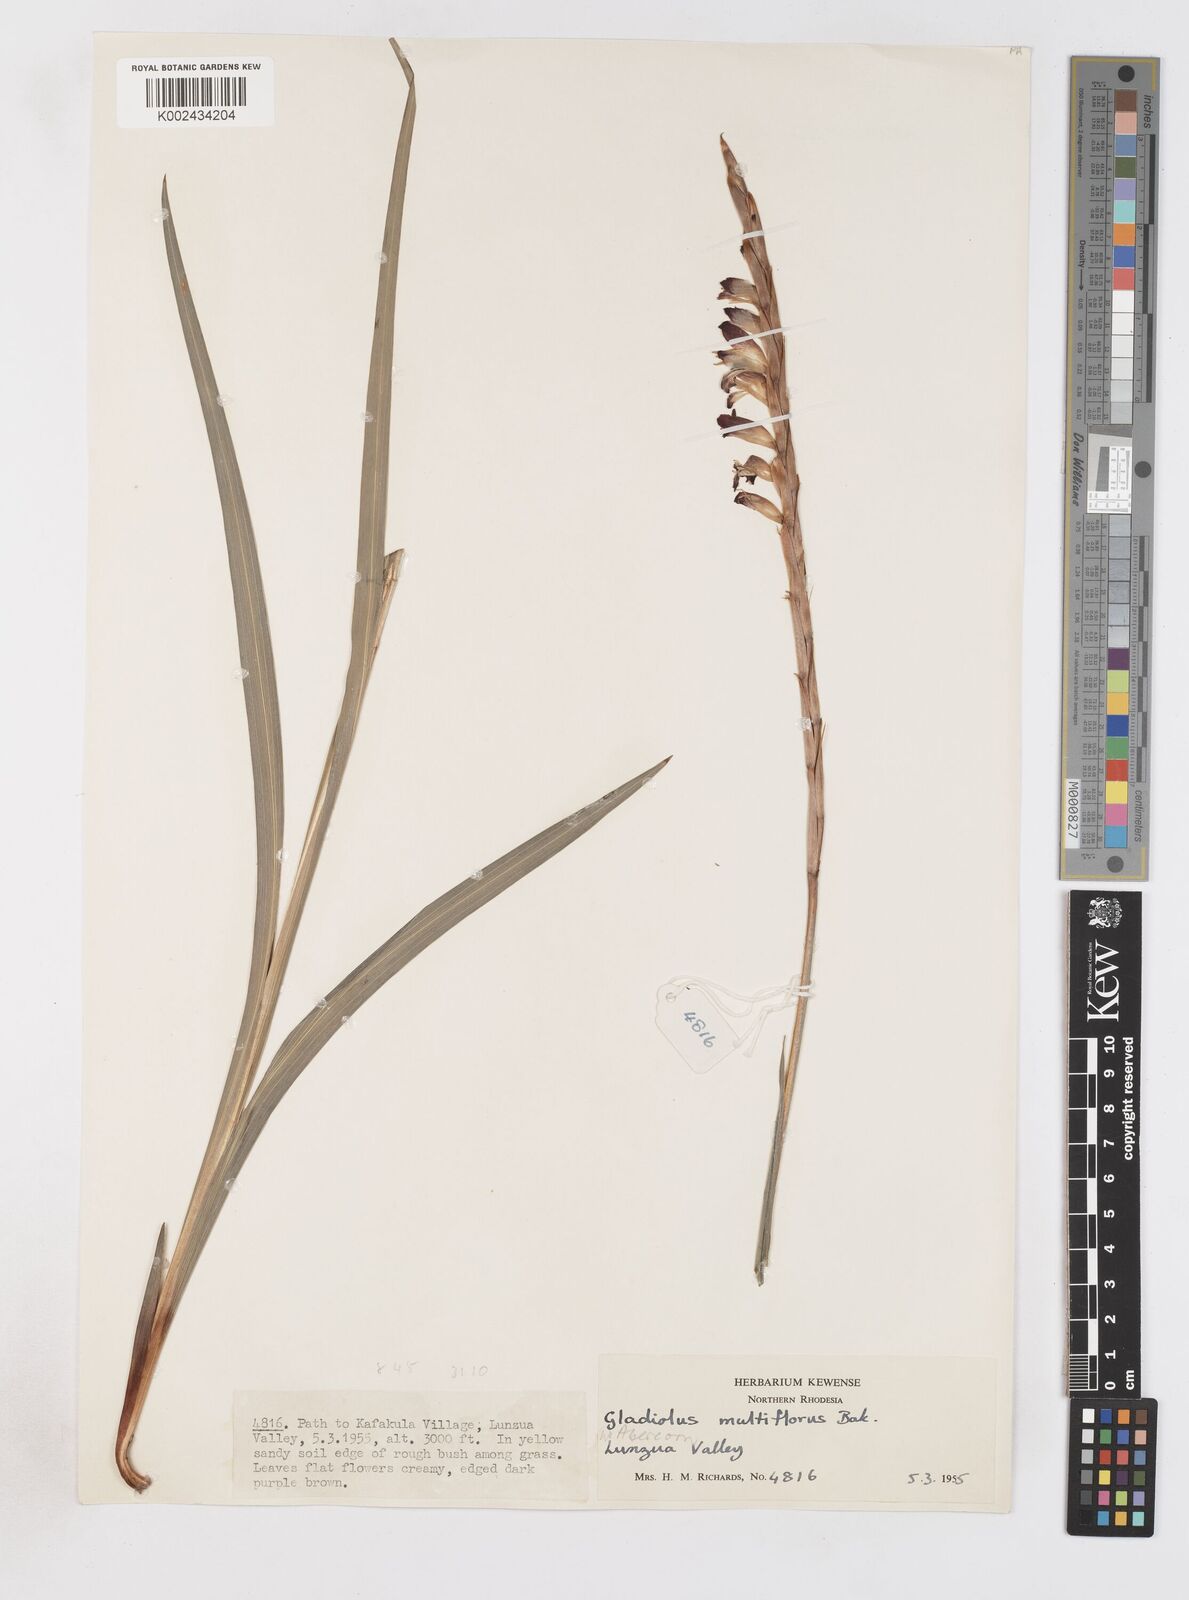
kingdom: Plantae
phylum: Tracheophyta
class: Liliopsida
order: Asparagales
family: Iridaceae
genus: Gladiolus
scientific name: Gladiolus gregarius
